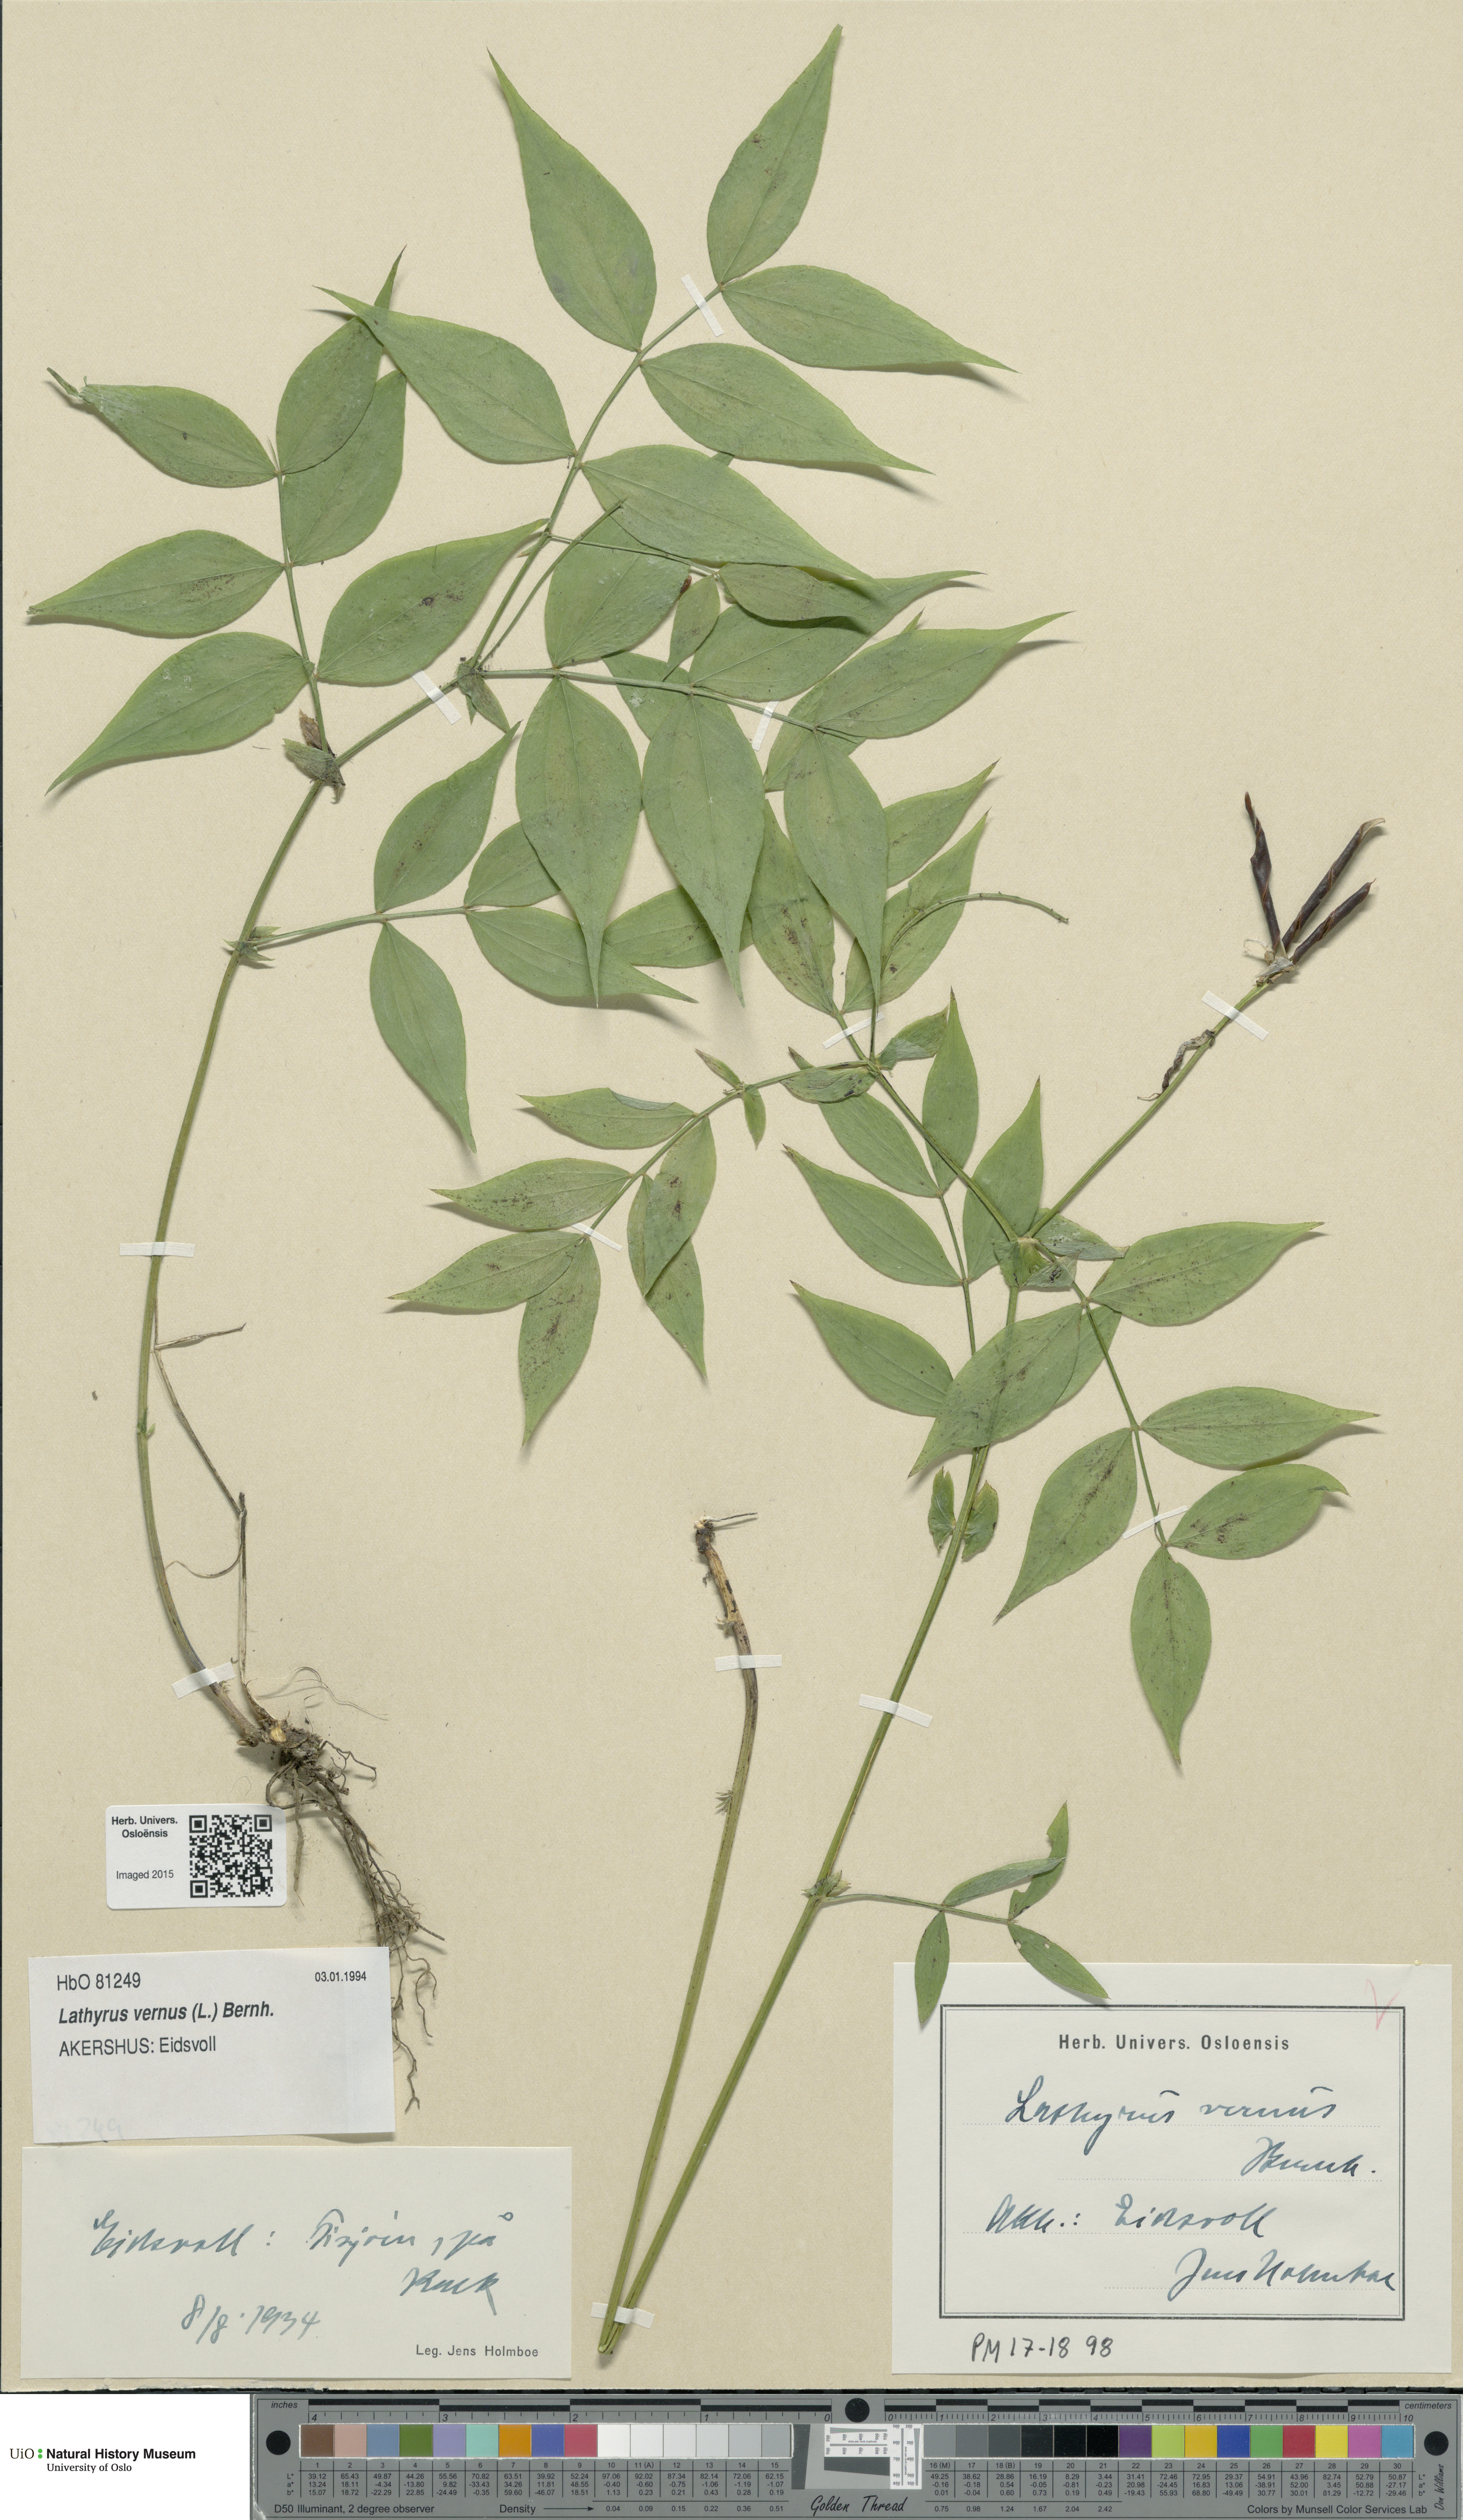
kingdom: Plantae
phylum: Tracheophyta
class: Magnoliopsida
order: Fabales
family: Fabaceae
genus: Lathyrus
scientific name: Lathyrus vernus
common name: Spring pea
